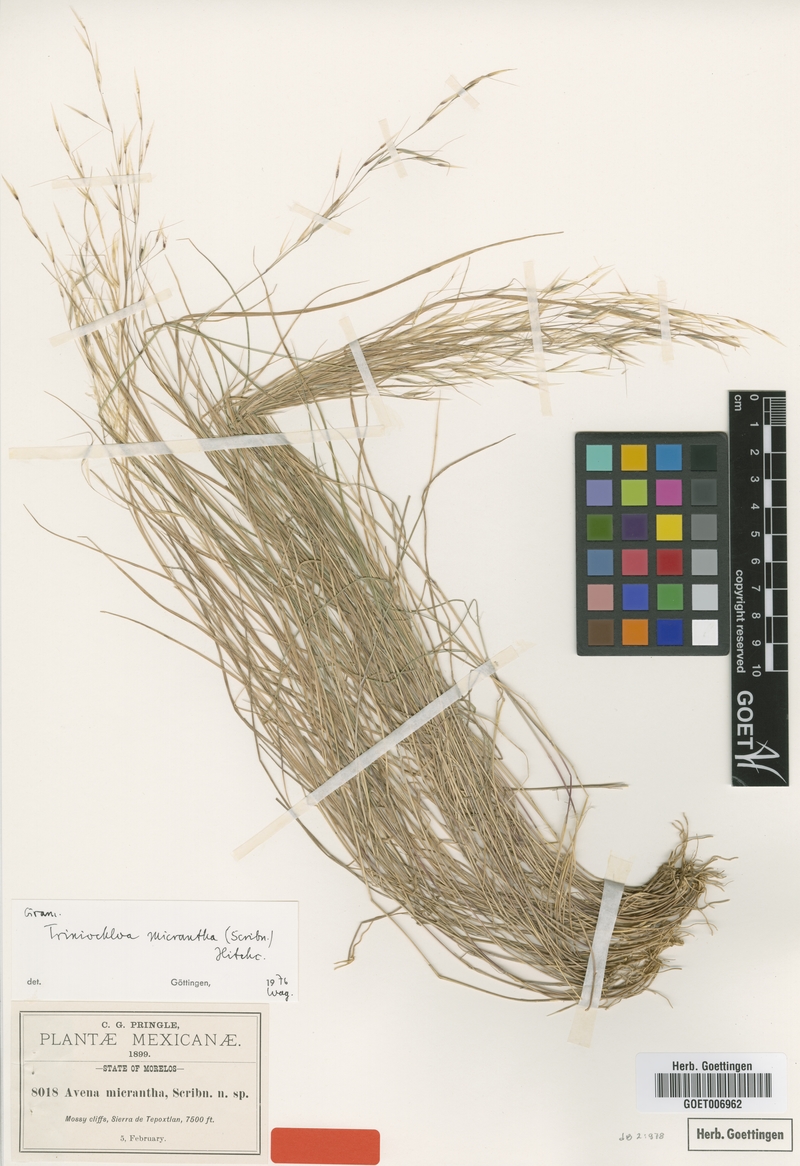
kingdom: Plantae
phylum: Tracheophyta
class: Liliopsida
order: Poales
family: Poaceae
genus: Triniochloa
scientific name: Triniochloa micrantha
